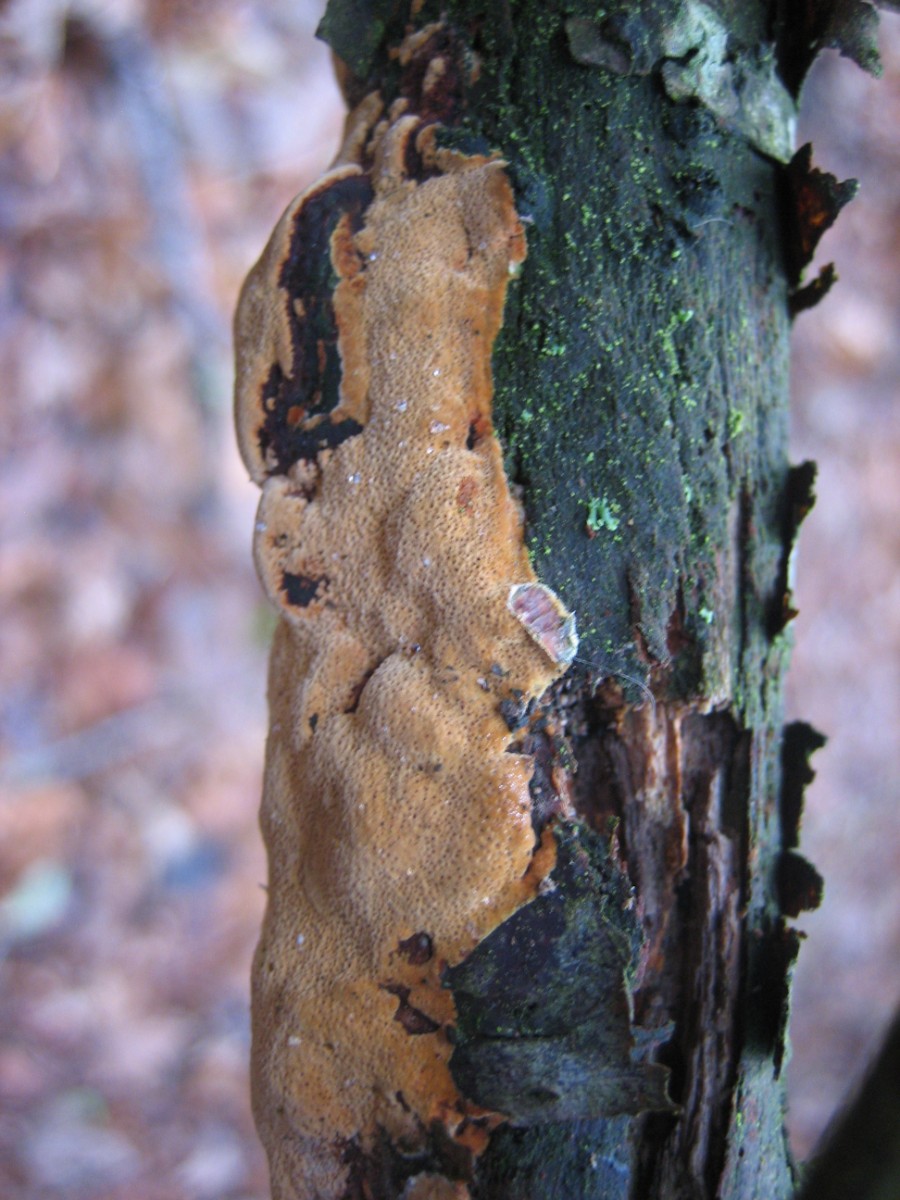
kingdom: Fungi
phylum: Basidiomycota
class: Agaricomycetes
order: Hymenochaetales
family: Hymenochaetaceae
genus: Phellinus
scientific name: Phellinus pomaceus
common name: blomme-ildporesvamp
